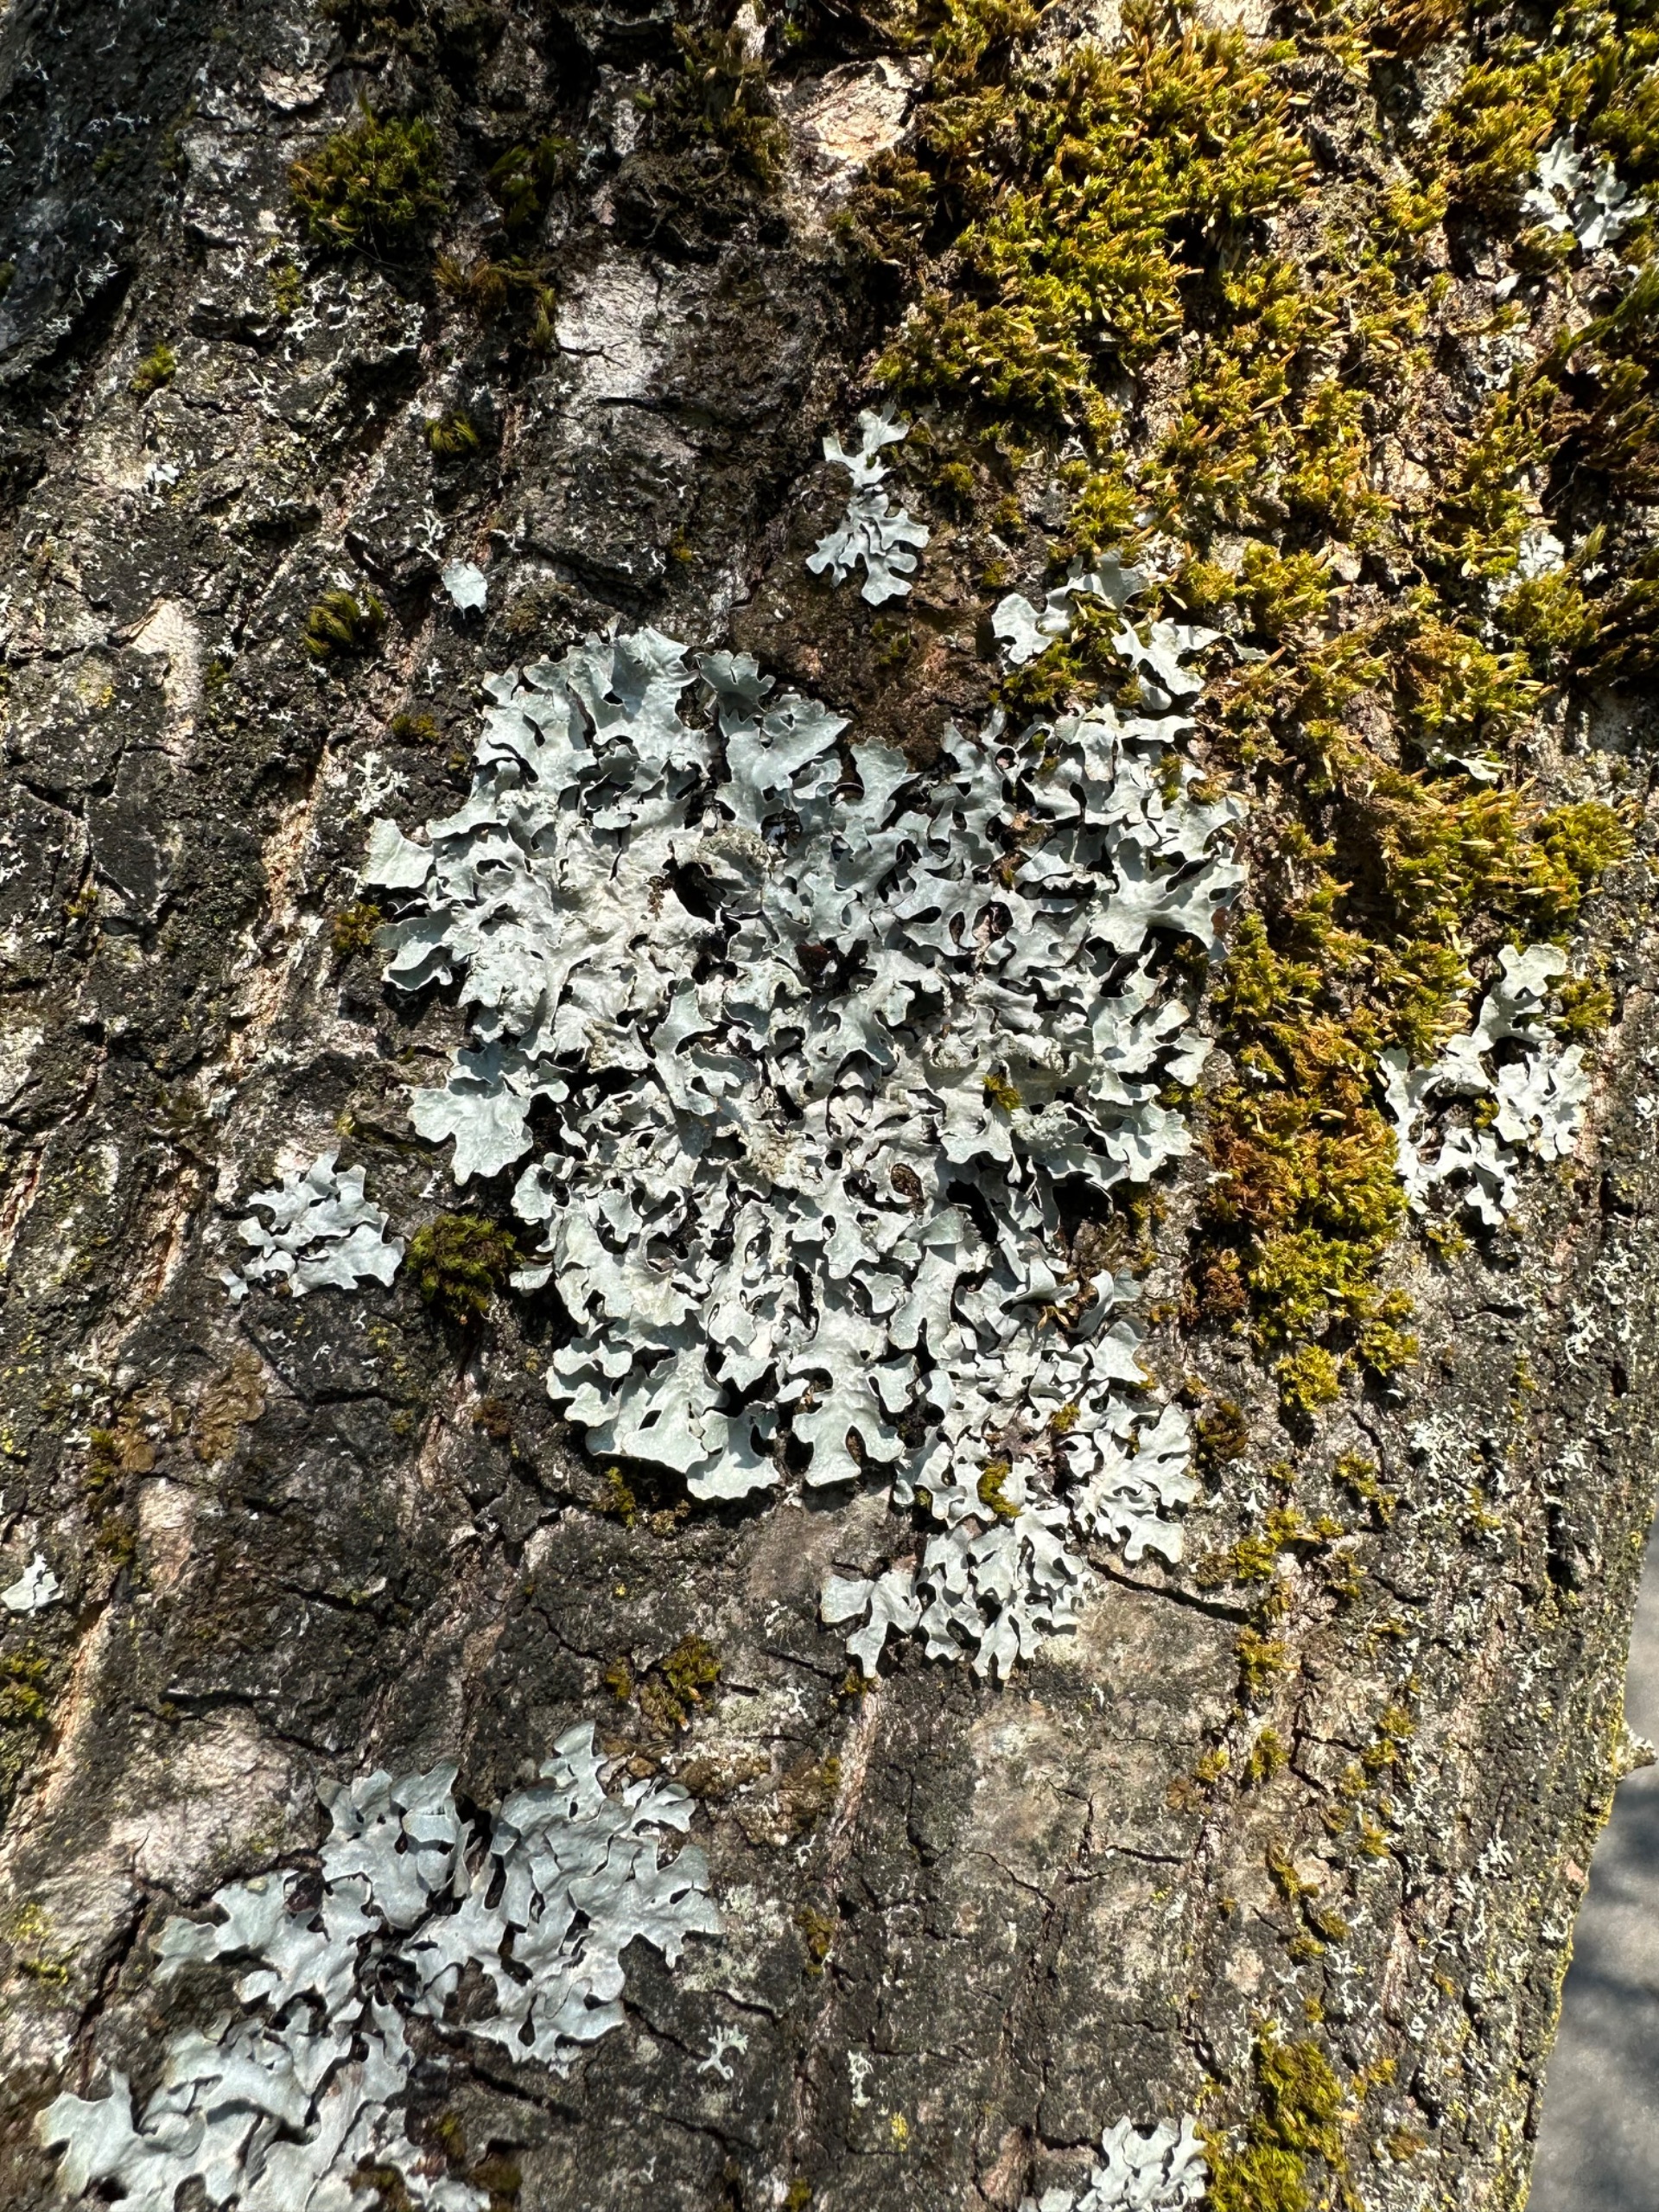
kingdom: Fungi
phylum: Ascomycota
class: Lecanoromycetes
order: Lecanorales
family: Parmeliaceae
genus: Parmelia
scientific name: Parmelia sulcata
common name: Rynket skållav
